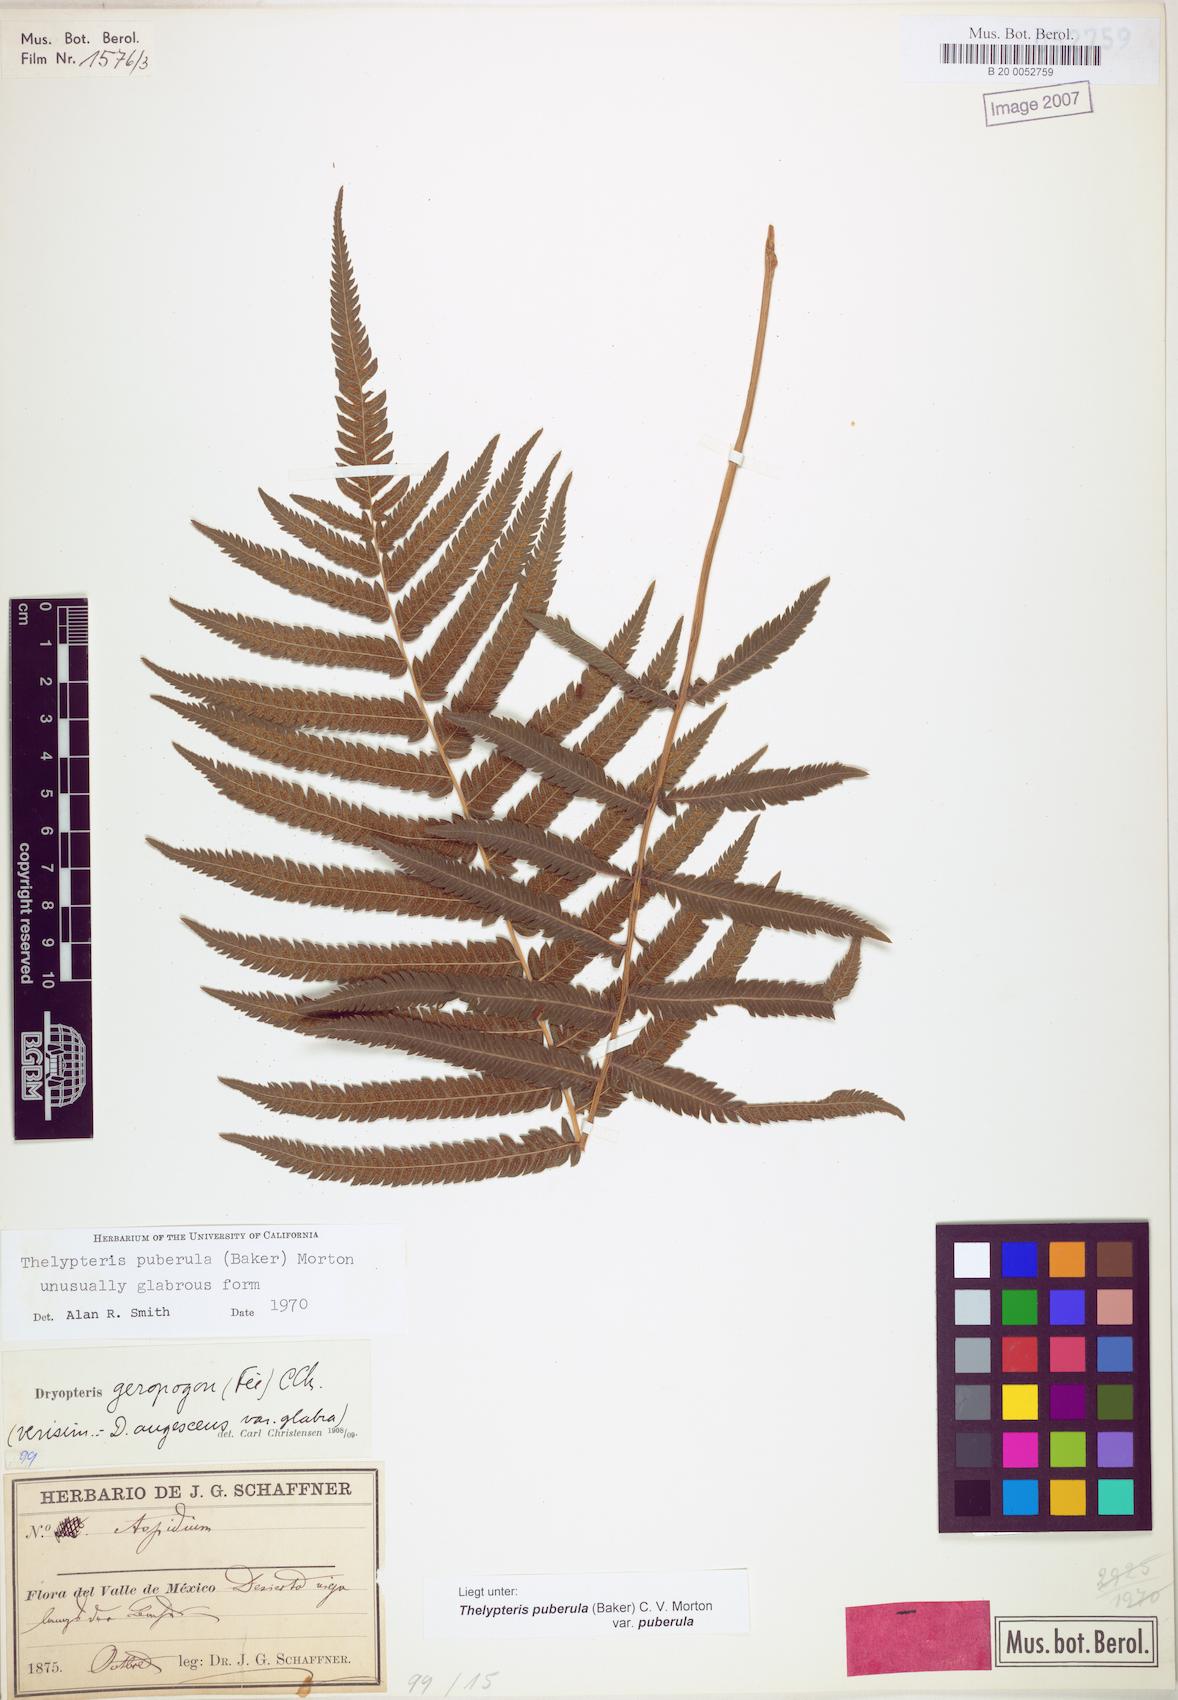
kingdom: Plantae
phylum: Tracheophyta
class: Polypodiopsida
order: Polypodiales
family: Thelypteridaceae
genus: Pelazoneuron
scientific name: Pelazoneuron puberulum
